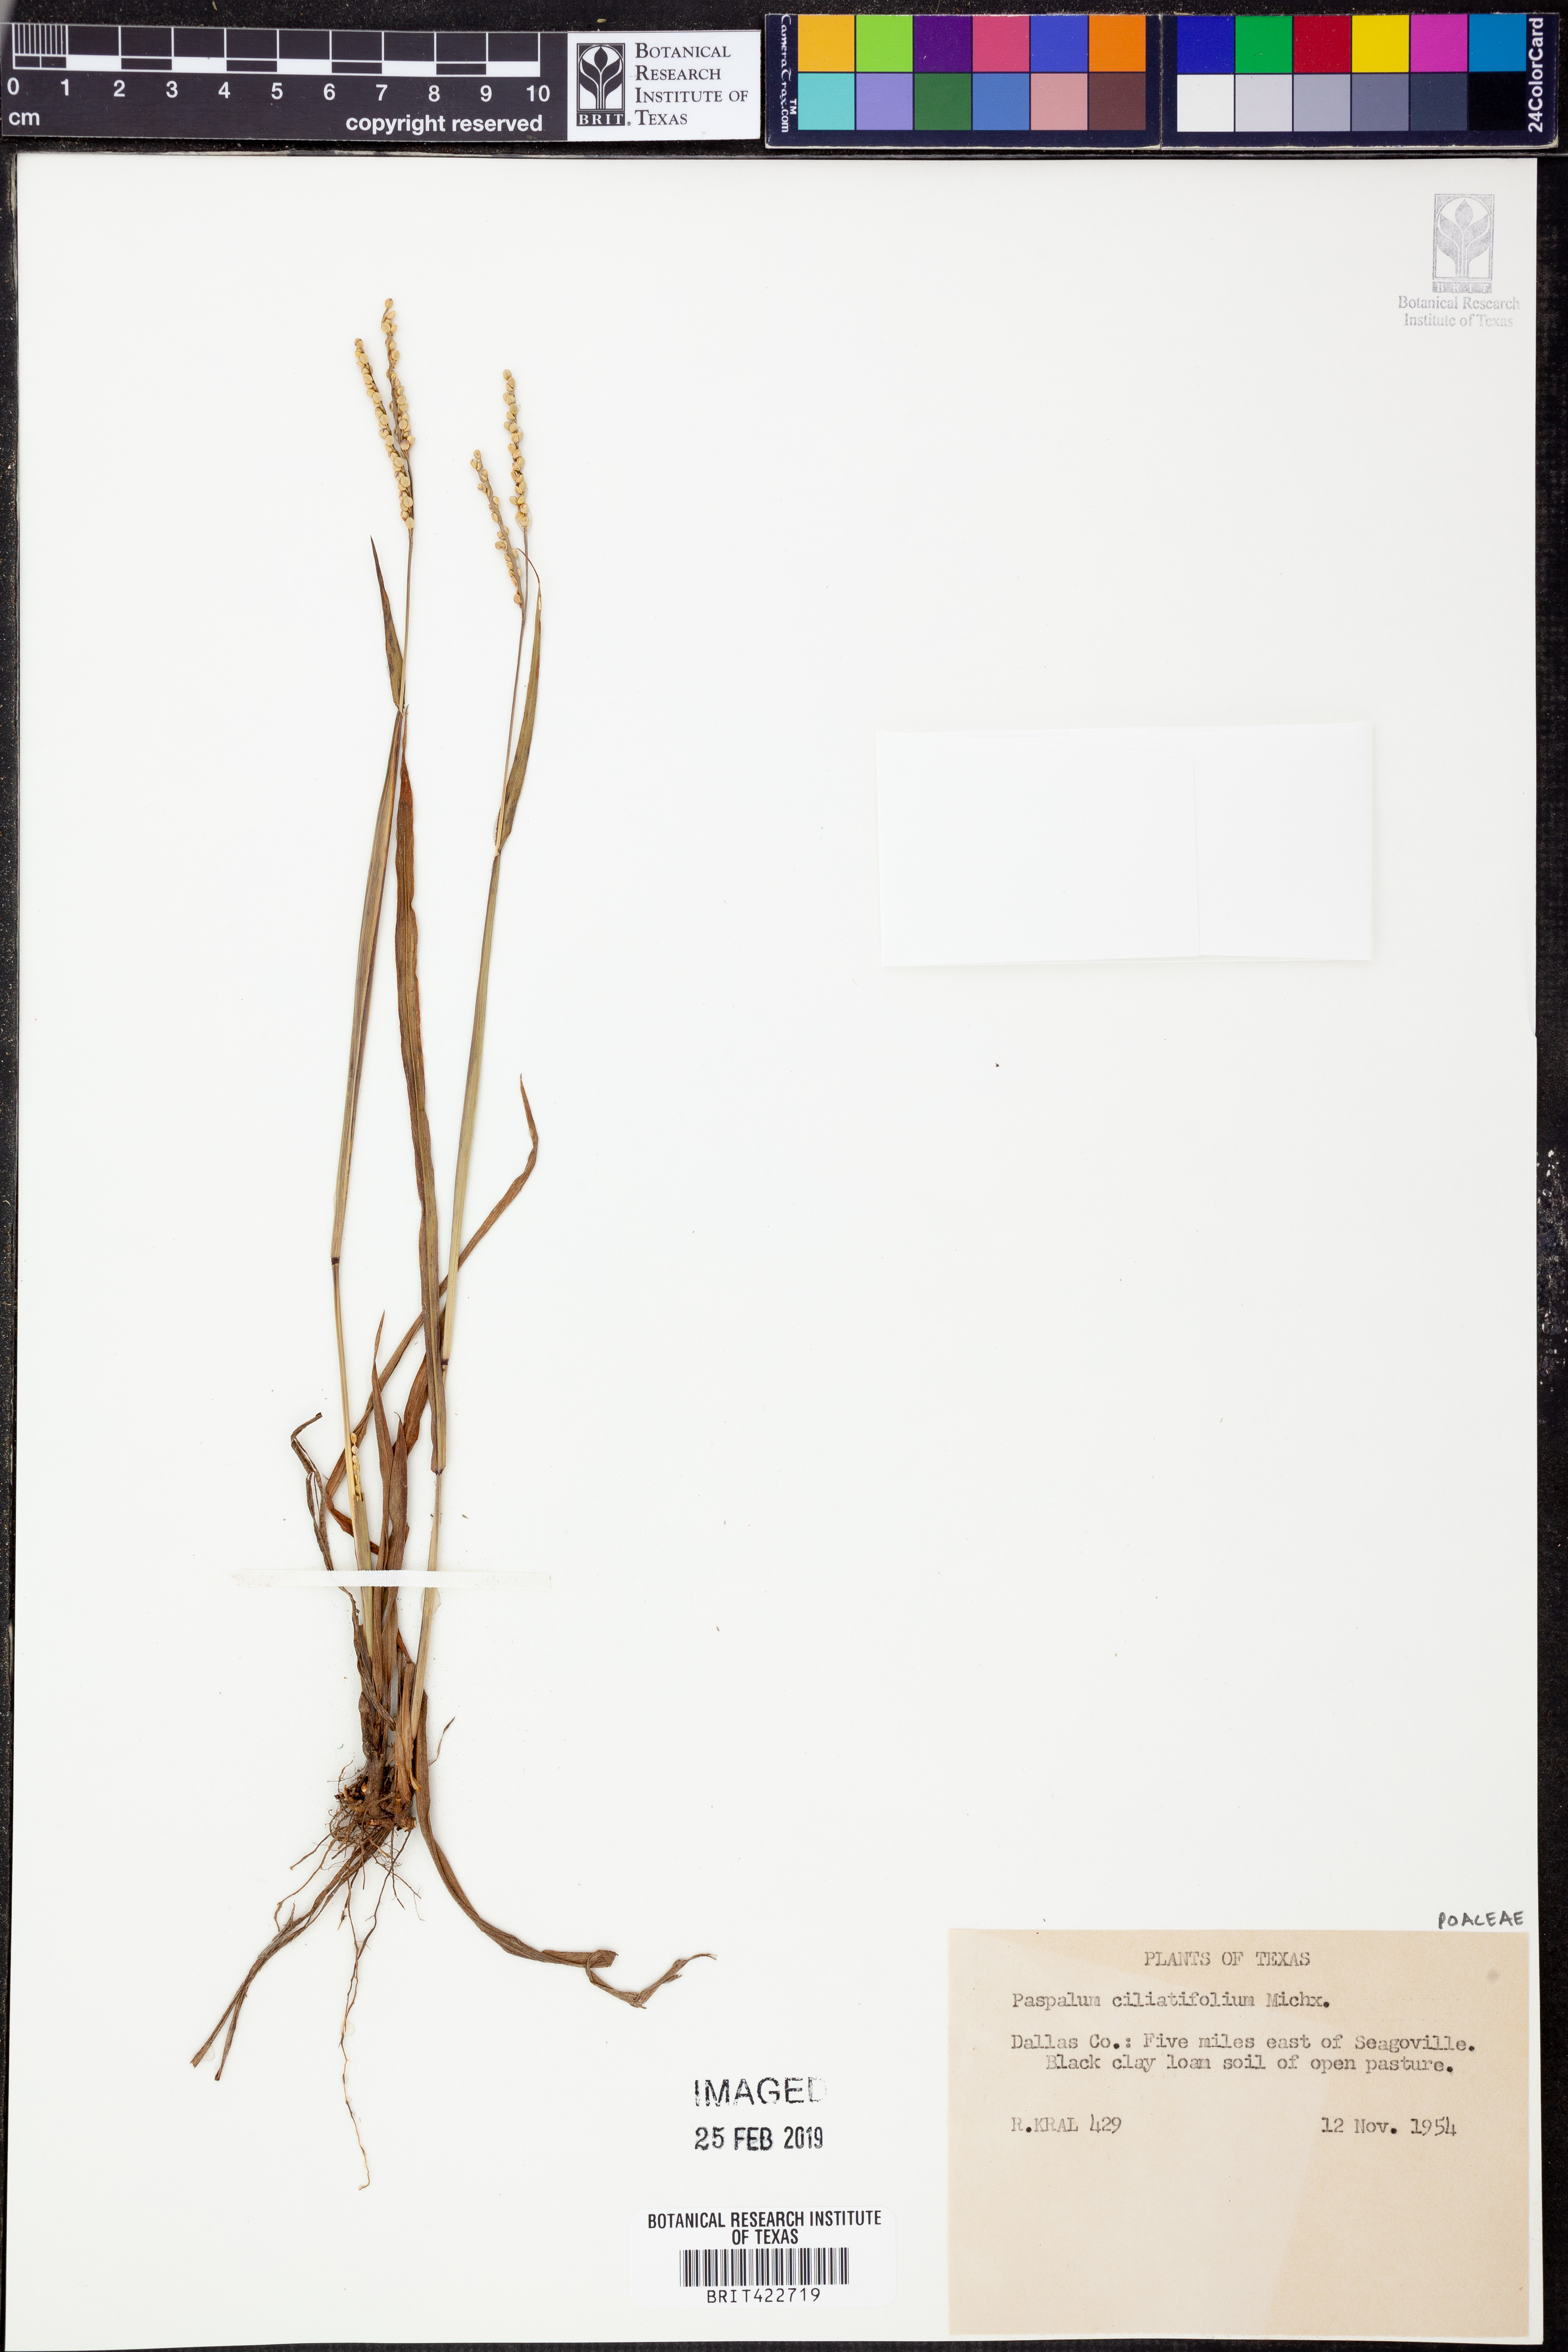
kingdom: Plantae
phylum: Tracheophyta
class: Liliopsida
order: Poales
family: Poaceae
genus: Paspalum
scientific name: Paspalum setaceum
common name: Slender paspalum
